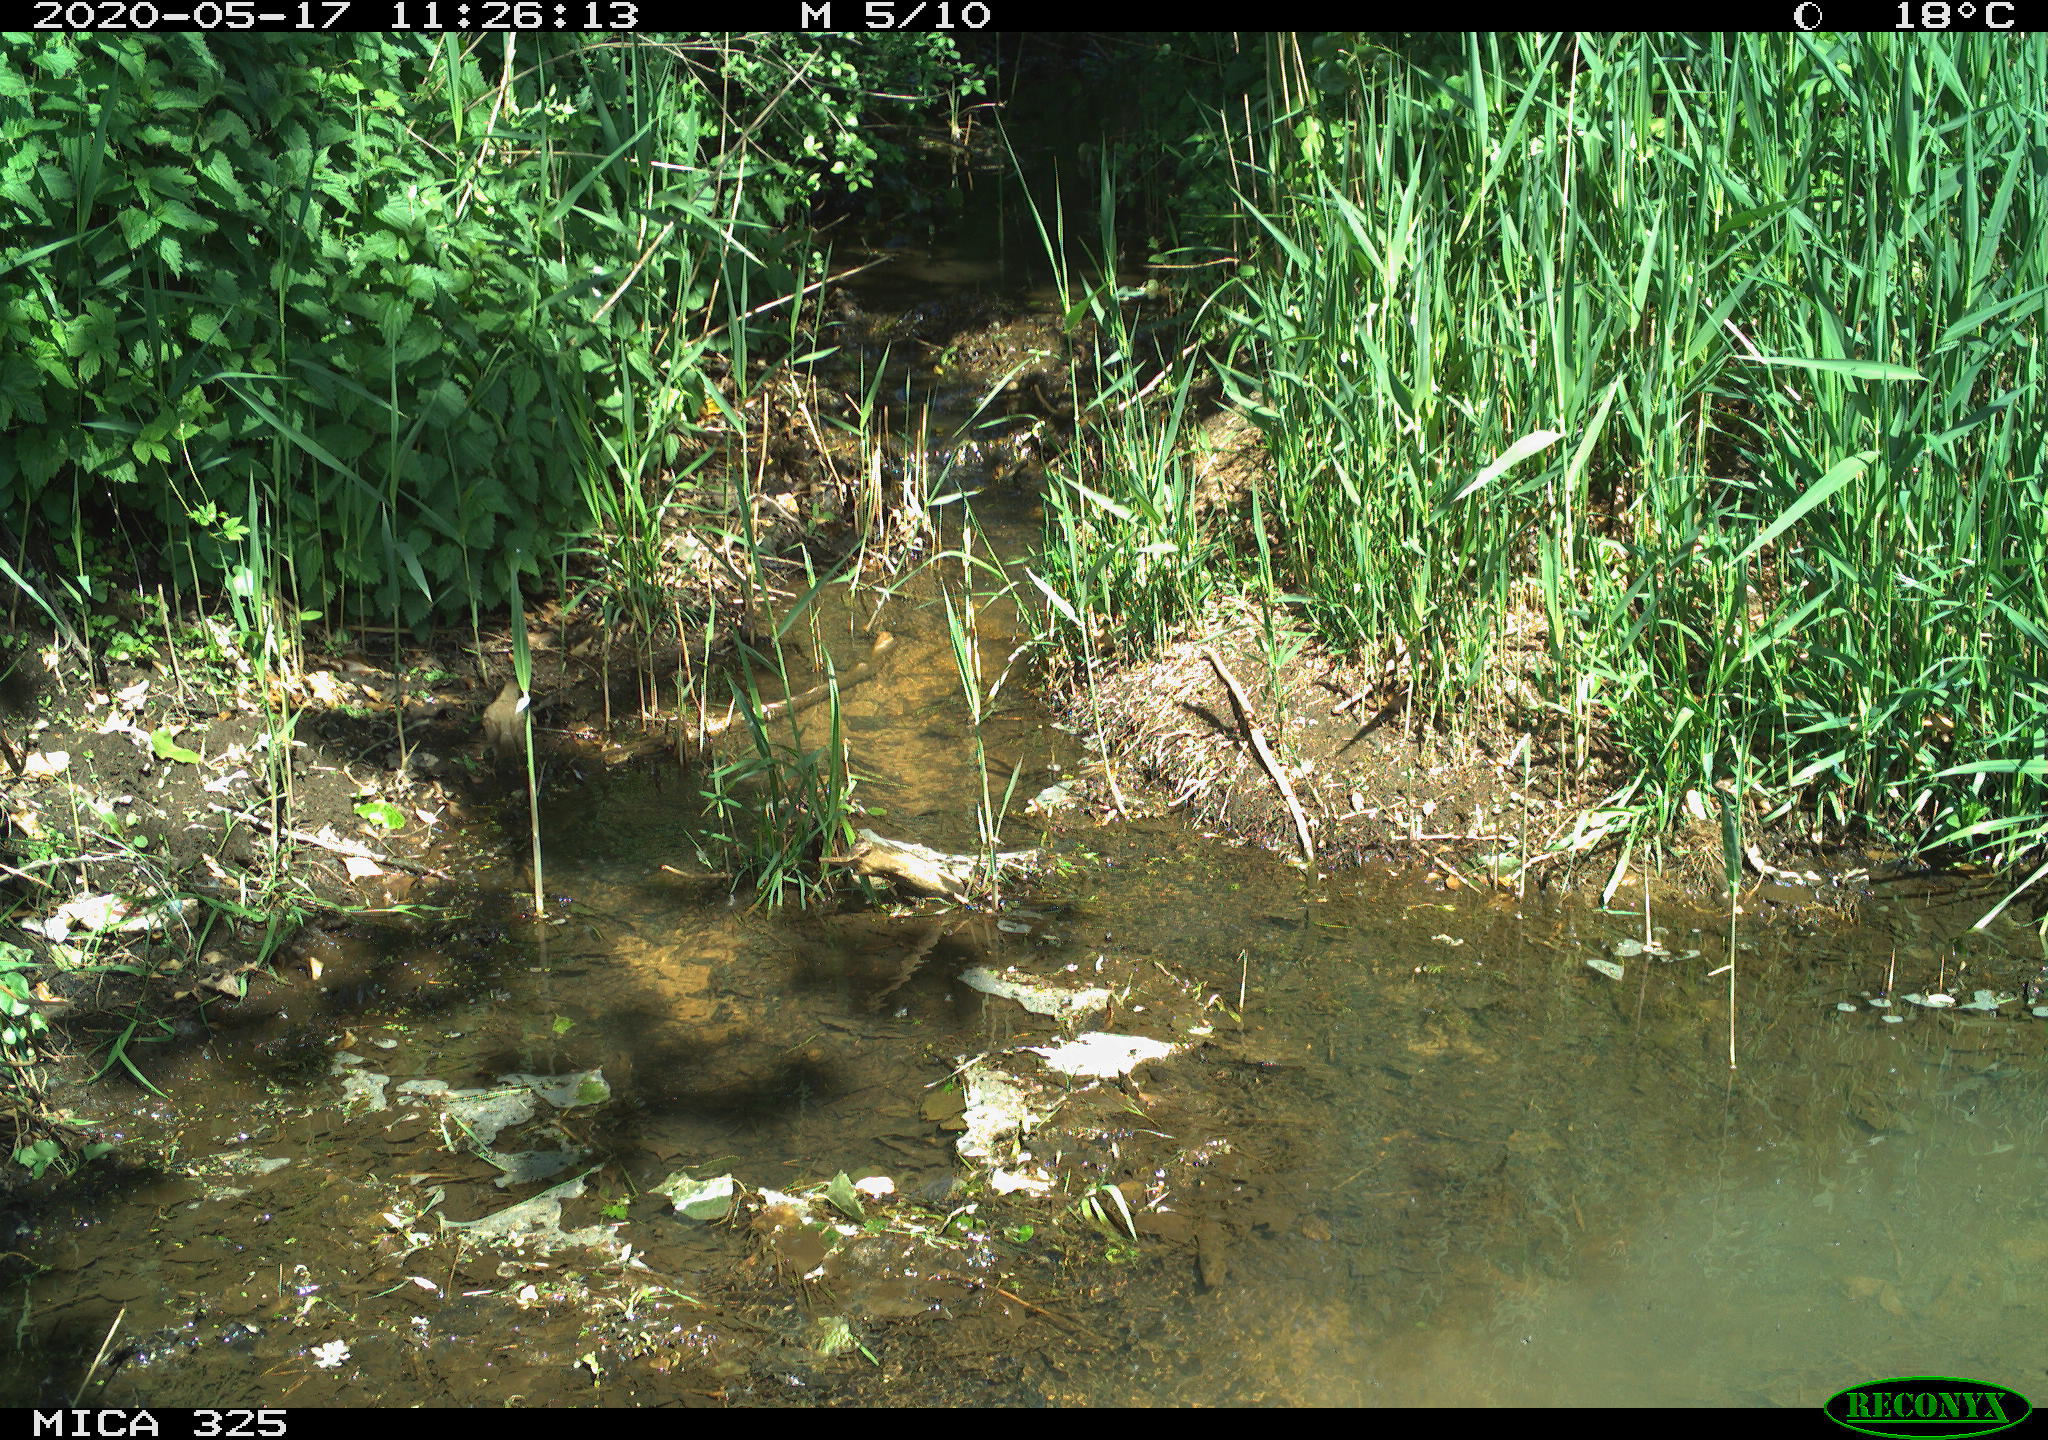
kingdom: Animalia
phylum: Chordata
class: Aves
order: Passeriformes
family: Turdidae
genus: Turdus
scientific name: Turdus philomelos
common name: Song thrush
